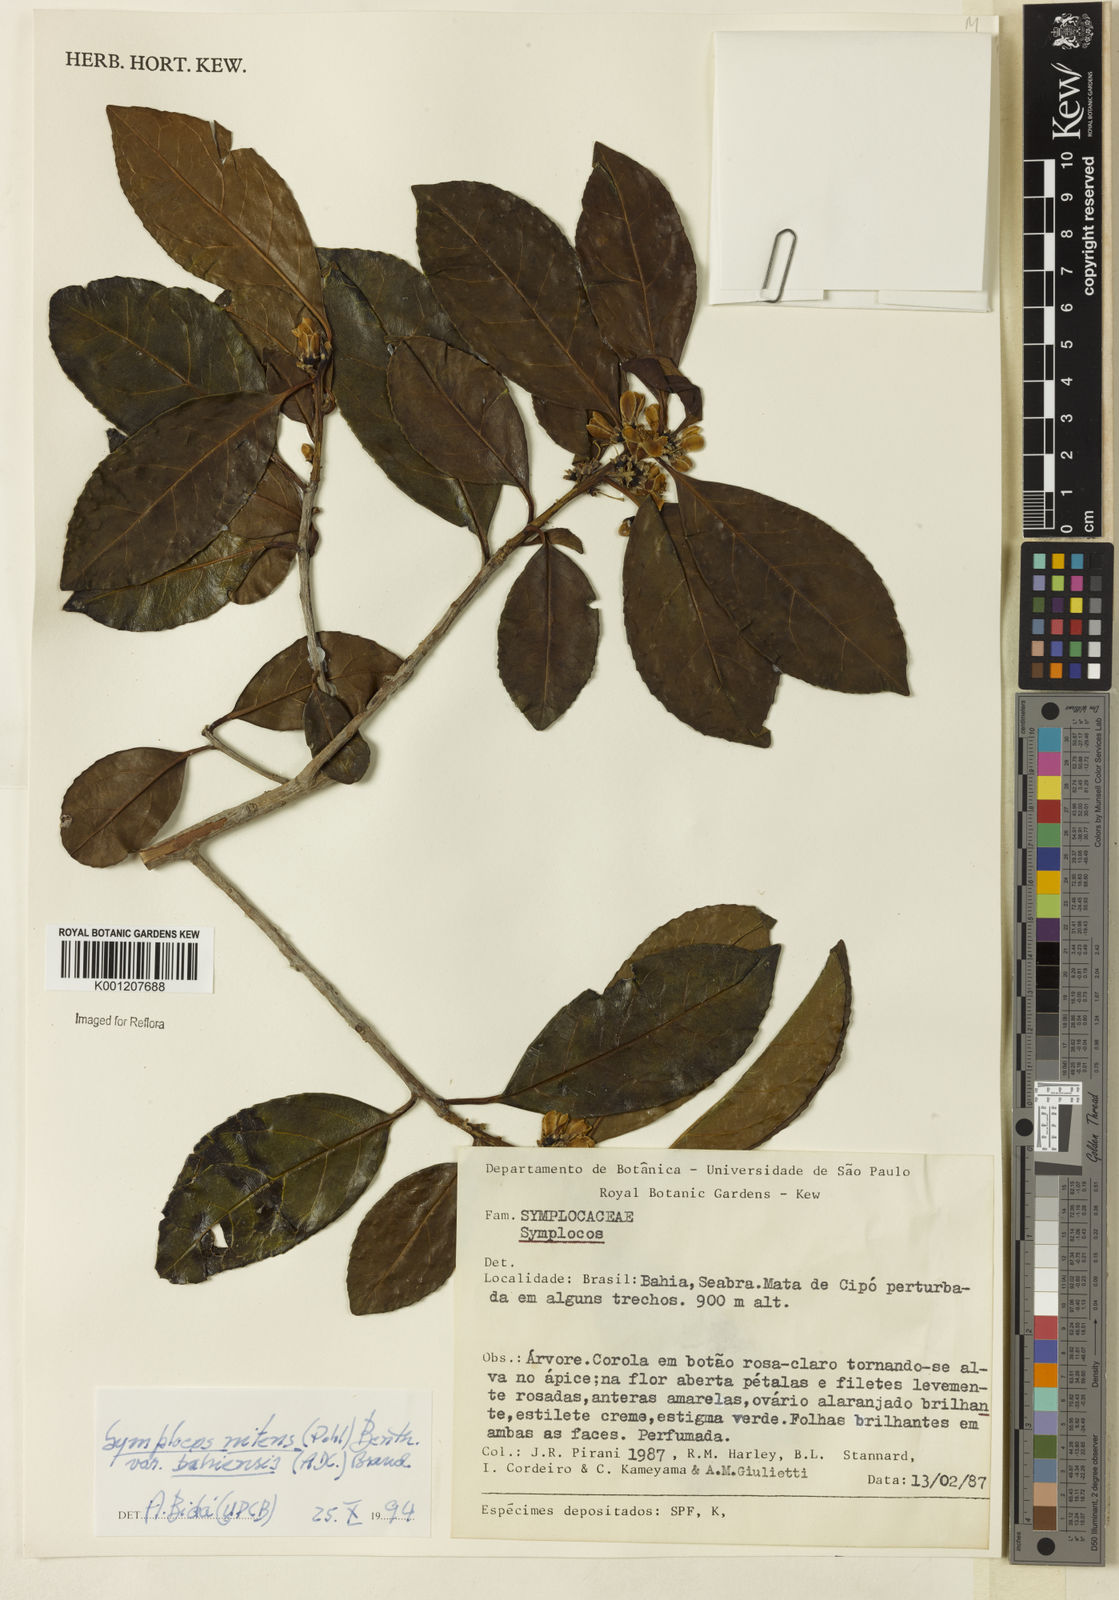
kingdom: Plantae
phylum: Tracheophyta
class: Magnoliopsida
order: Ericales
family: Symplocaceae
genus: Symplocos
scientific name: Symplocos nitens
